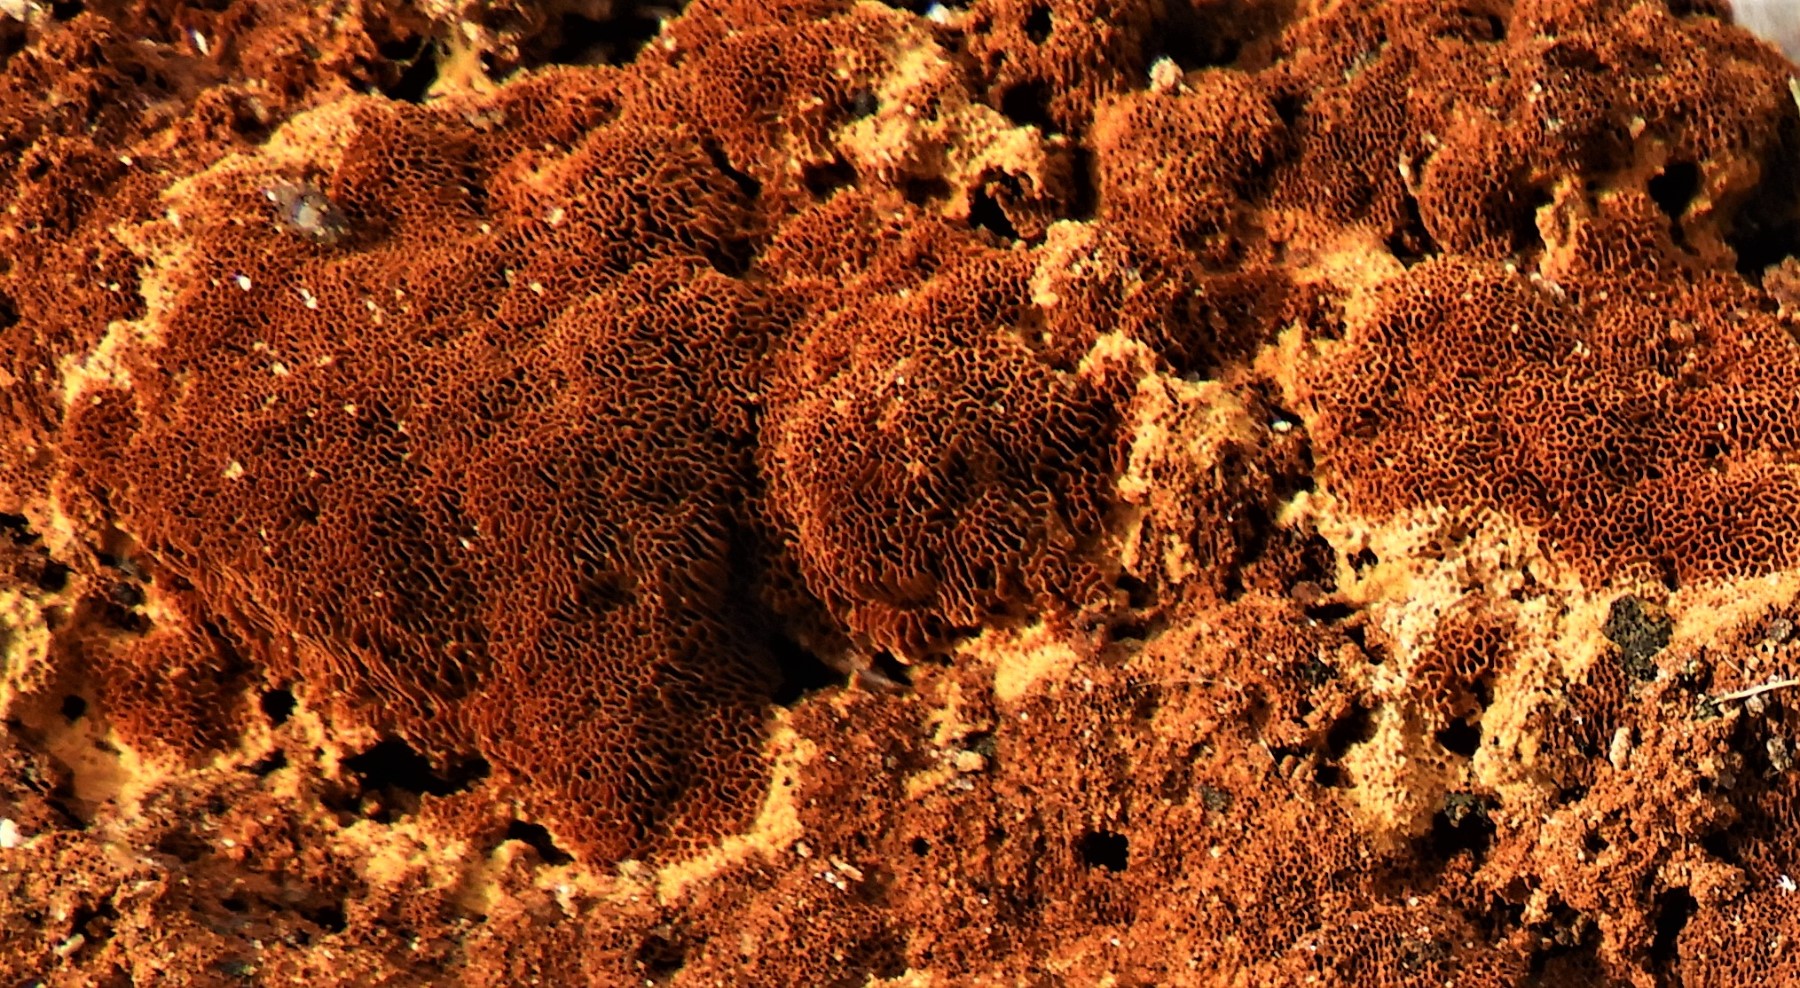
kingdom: Fungi
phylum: Basidiomycota
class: Agaricomycetes
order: Hymenochaetales
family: Hymenochaetaceae
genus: Fuscoporia
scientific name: Fuscoporia ferrea
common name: skorpe-ildporesvamp
